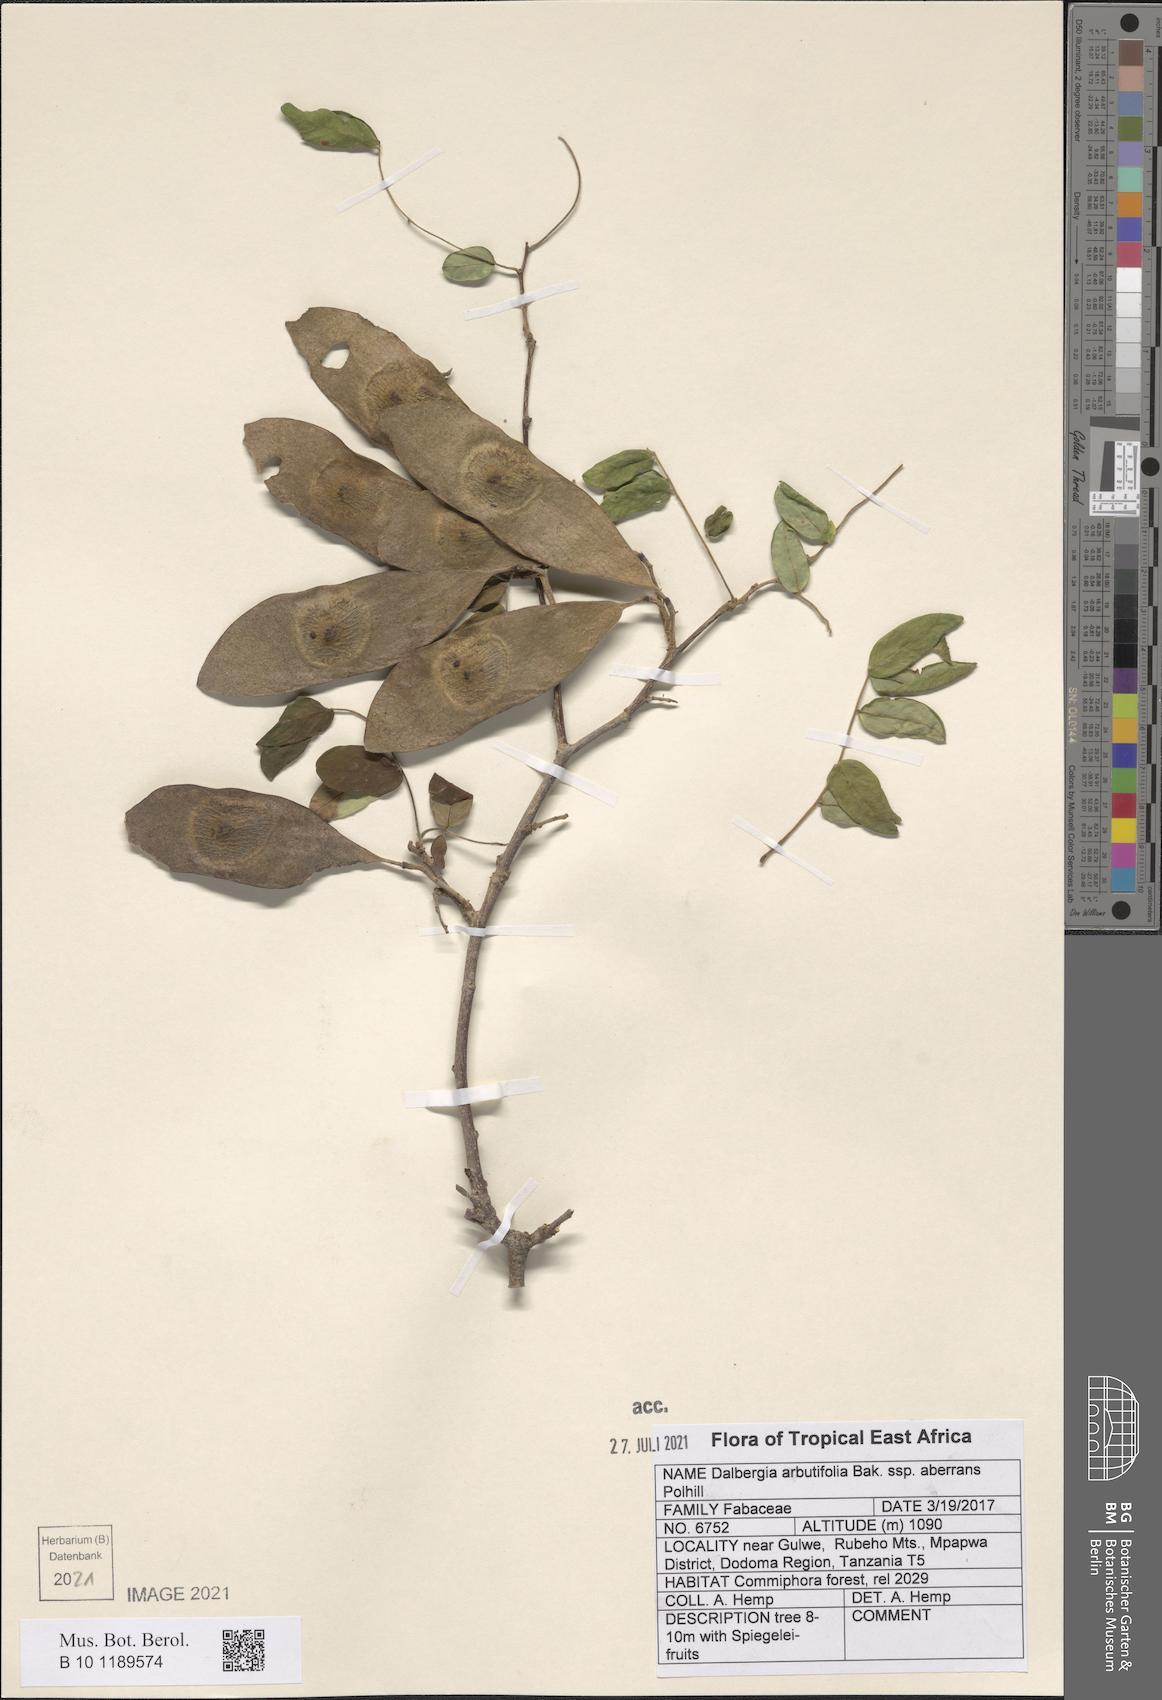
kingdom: Plantae
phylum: Tracheophyta
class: Magnoliopsida
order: Fabales
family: Fabaceae
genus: Dalbergia
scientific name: Dalbergia arbutifolia
